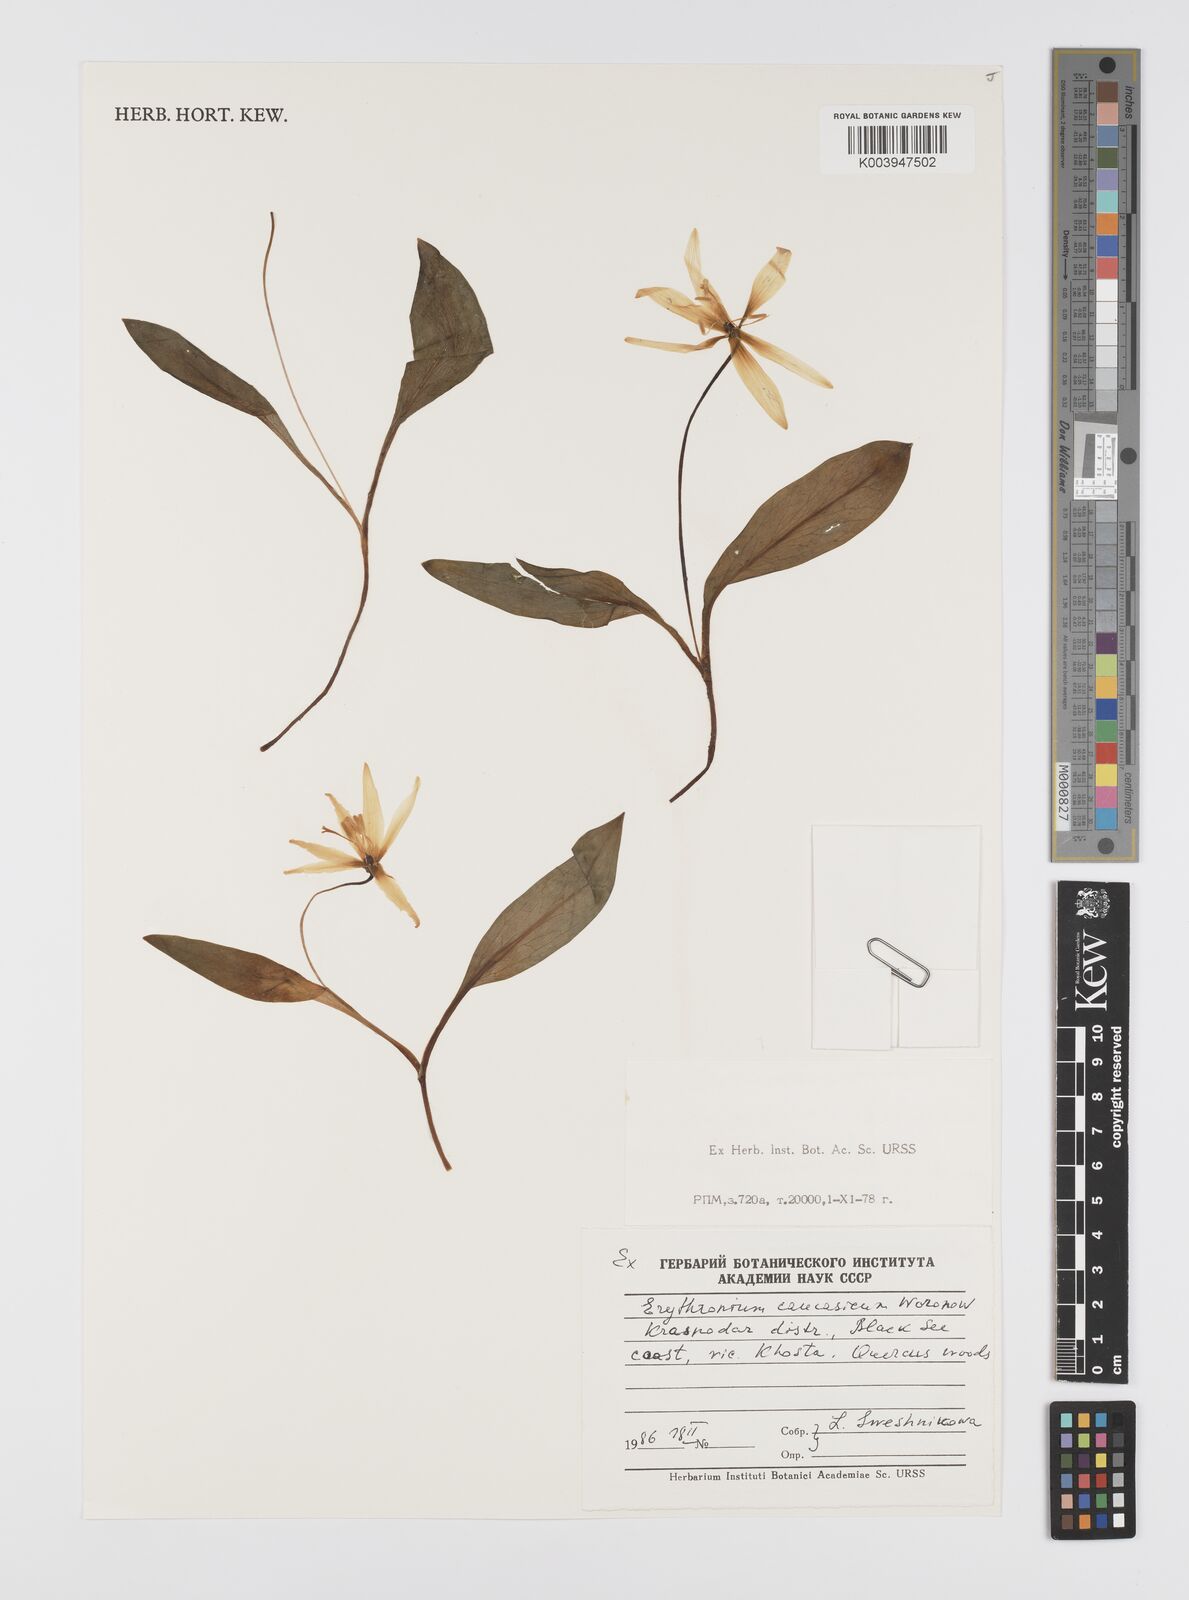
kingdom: Plantae
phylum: Tracheophyta
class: Liliopsida
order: Liliales
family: Liliaceae
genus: Erythronium
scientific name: Erythronium caucasicum
